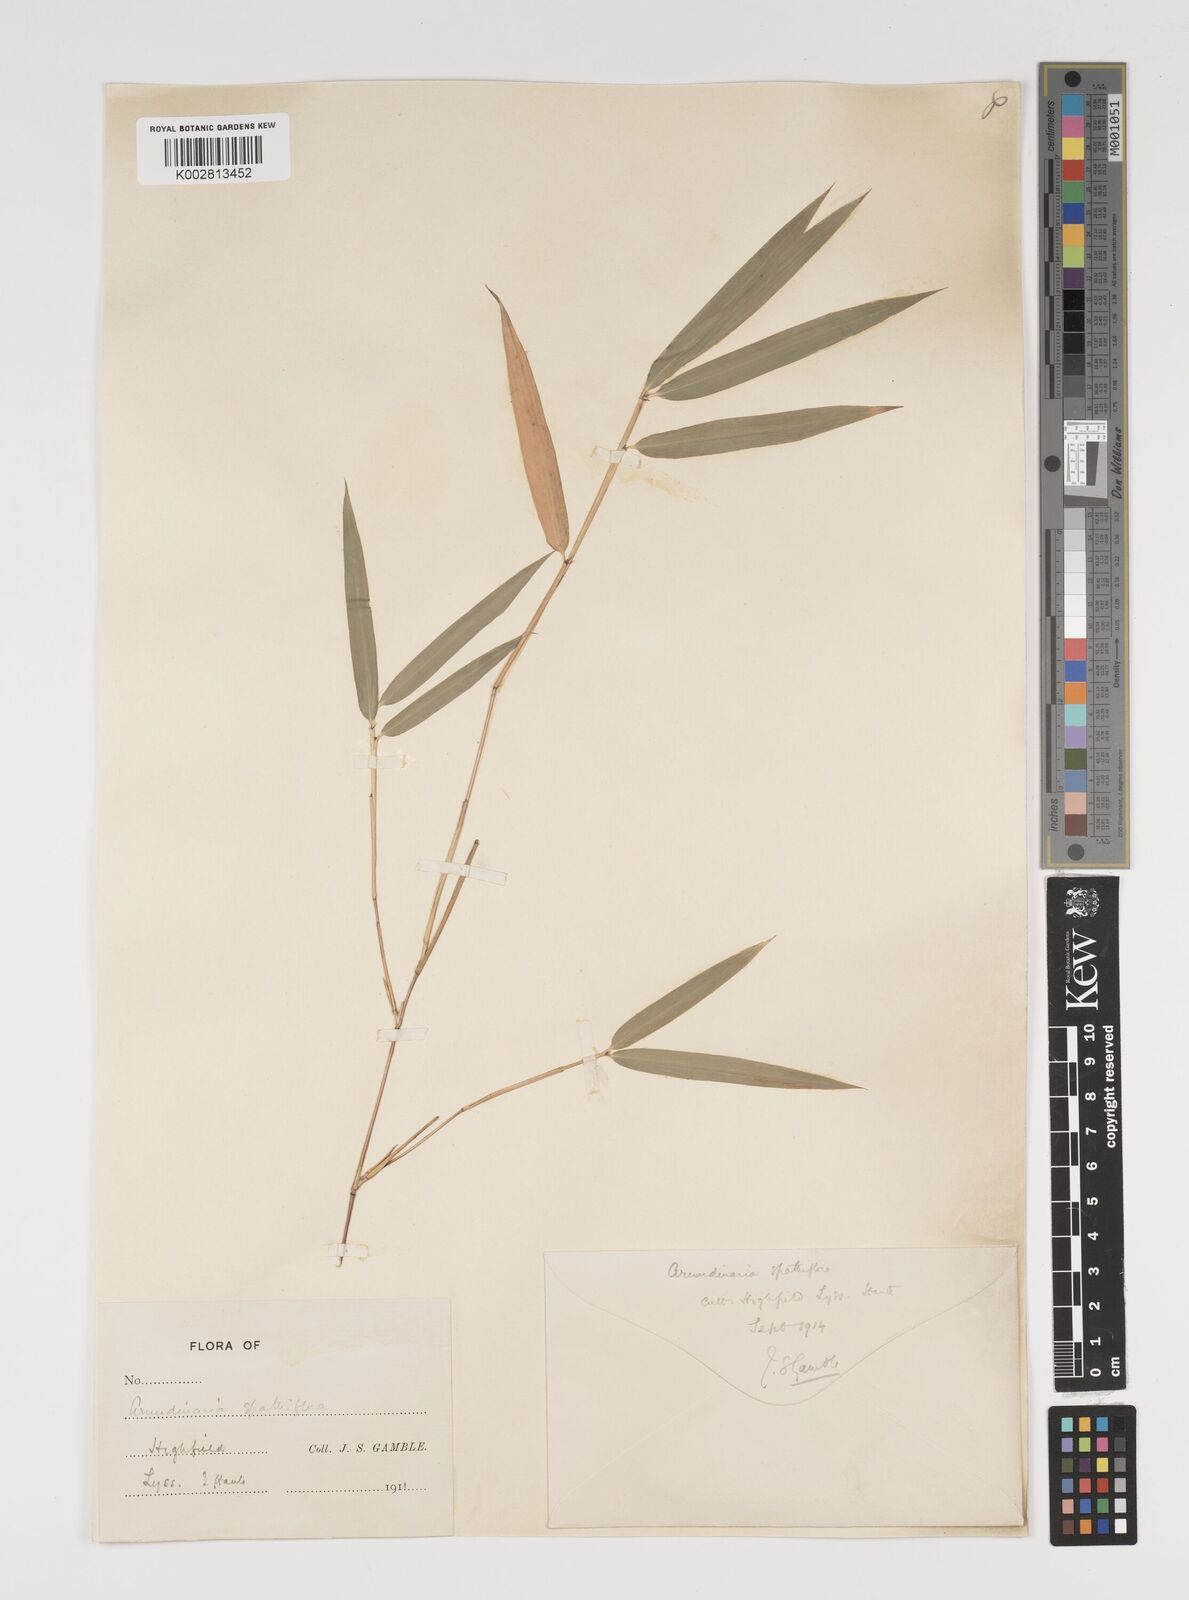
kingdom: Plantae
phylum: Tracheophyta
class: Liliopsida
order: Poales
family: Poaceae
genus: Thamnocalamus
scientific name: Thamnocalamus spathiflorus
